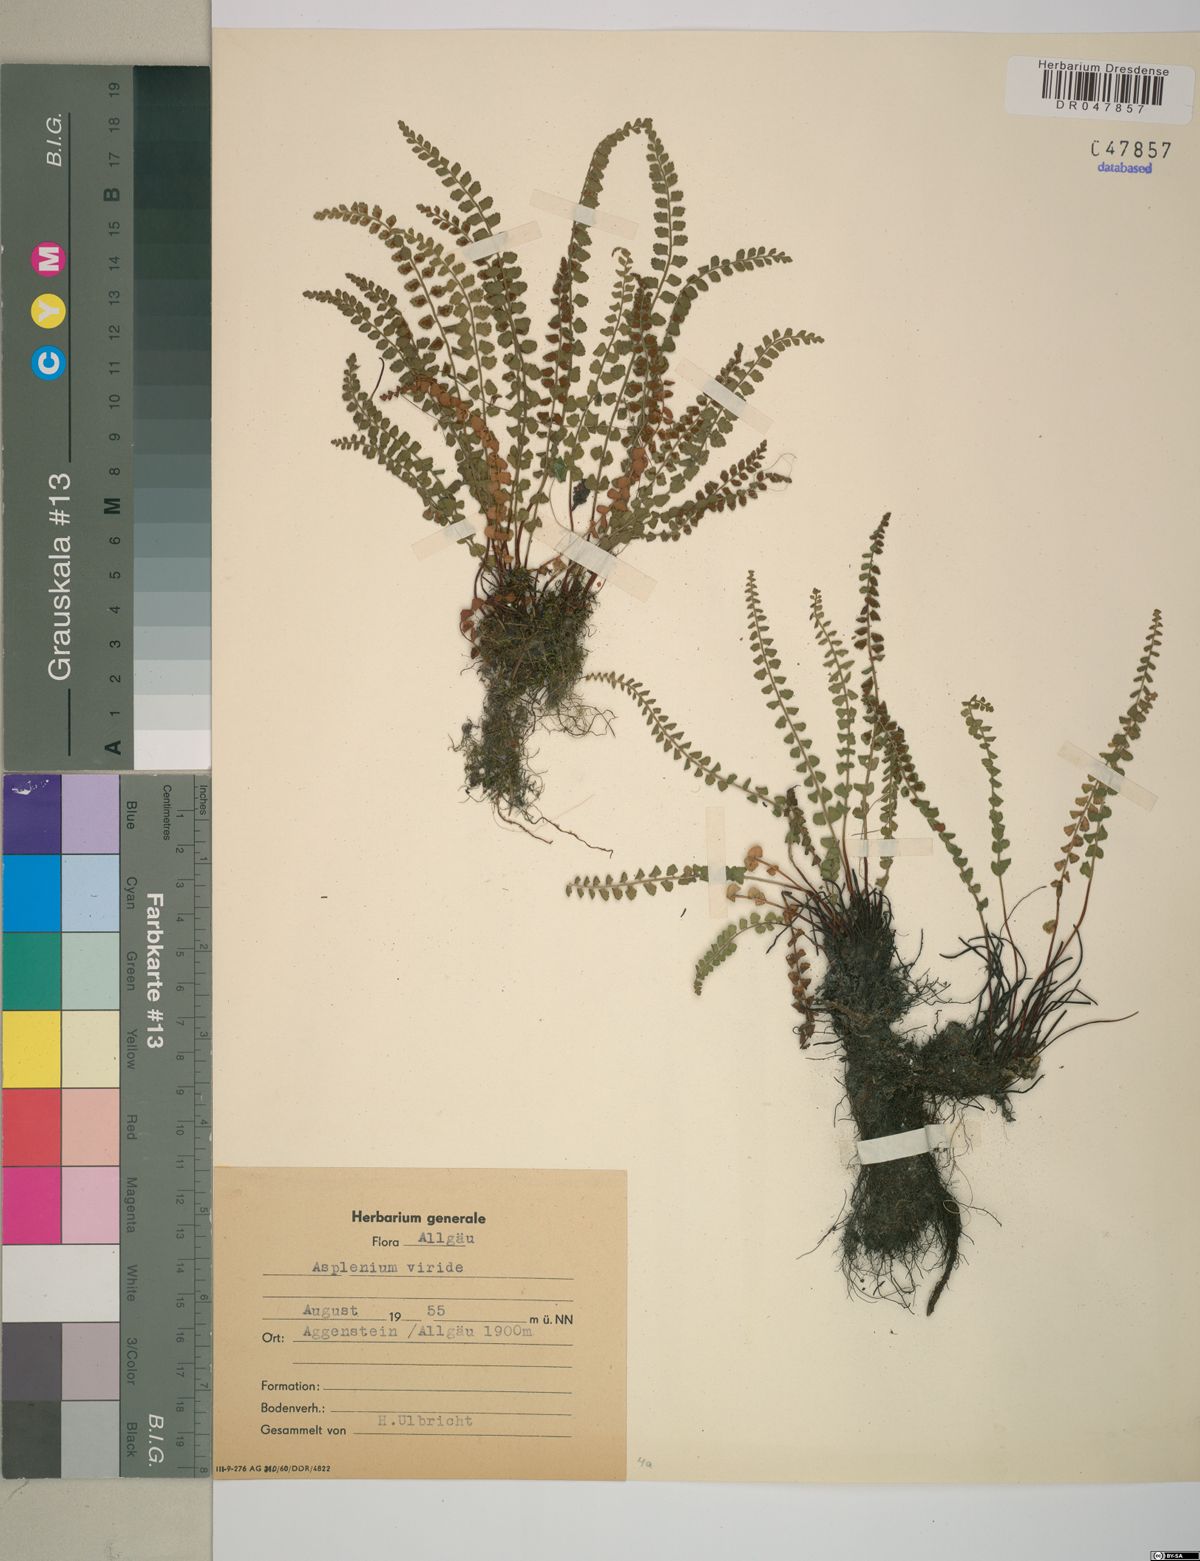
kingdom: Plantae
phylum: Tracheophyta
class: Polypodiopsida
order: Polypodiales
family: Aspleniaceae
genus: Asplenium
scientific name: Asplenium viride
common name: Green spleenwort
